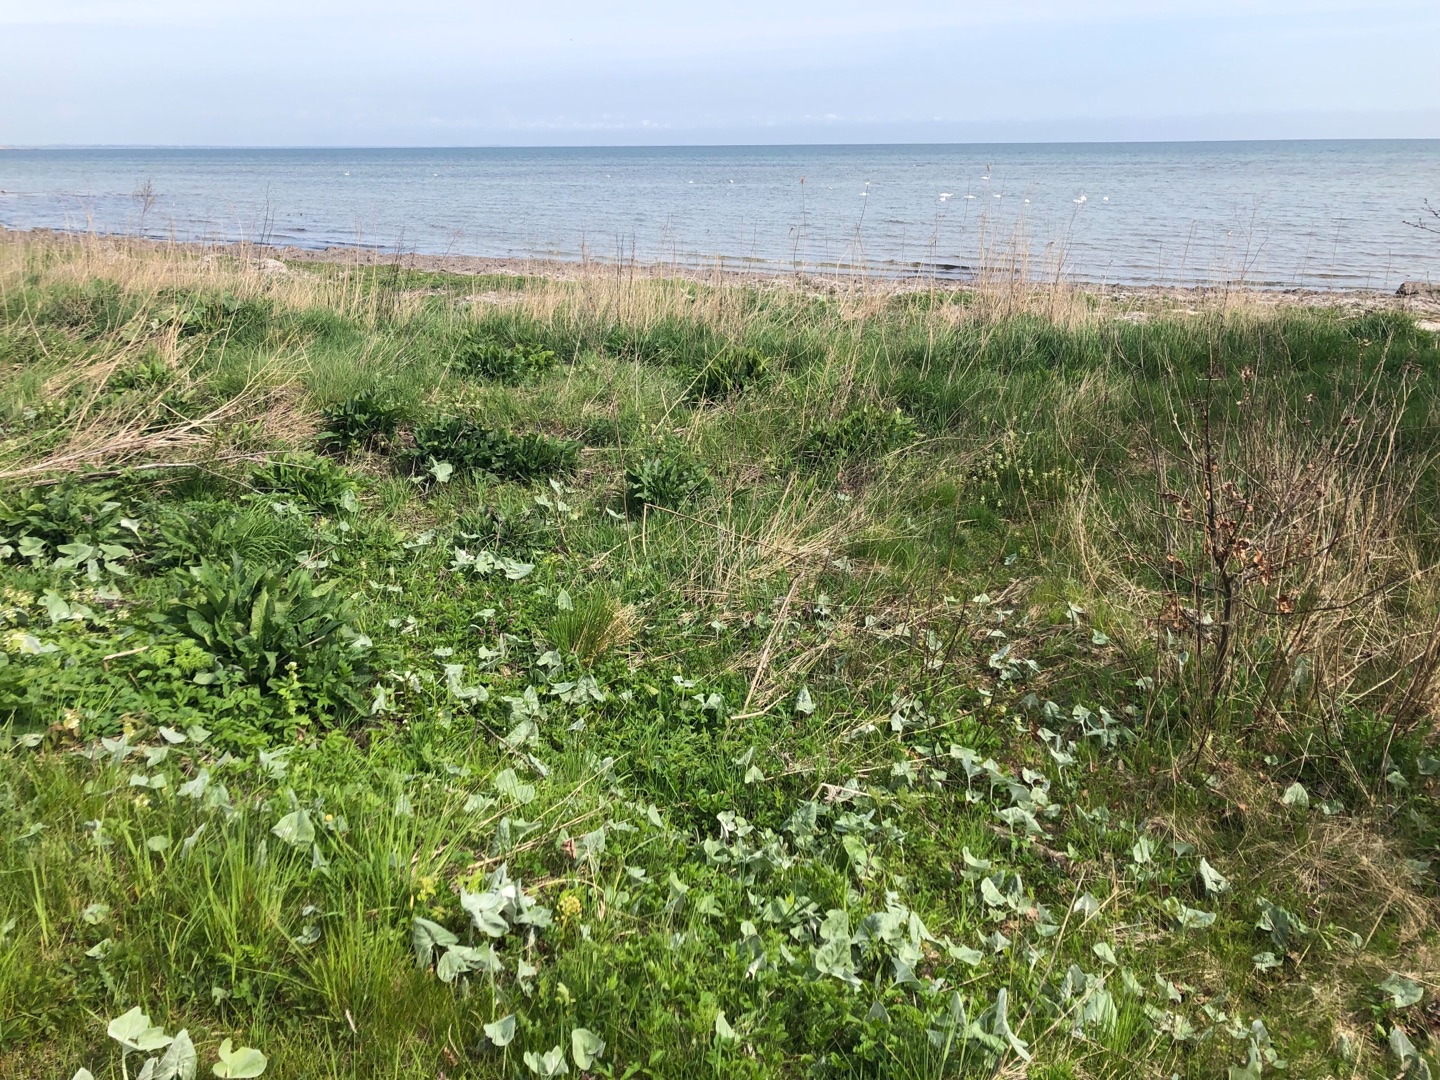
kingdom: Plantae
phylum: Tracheophyta
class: Magnoliopsida
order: Asterales
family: Asteraceae
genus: Petasites
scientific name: Petasites spurius
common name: Filtet hestehov
